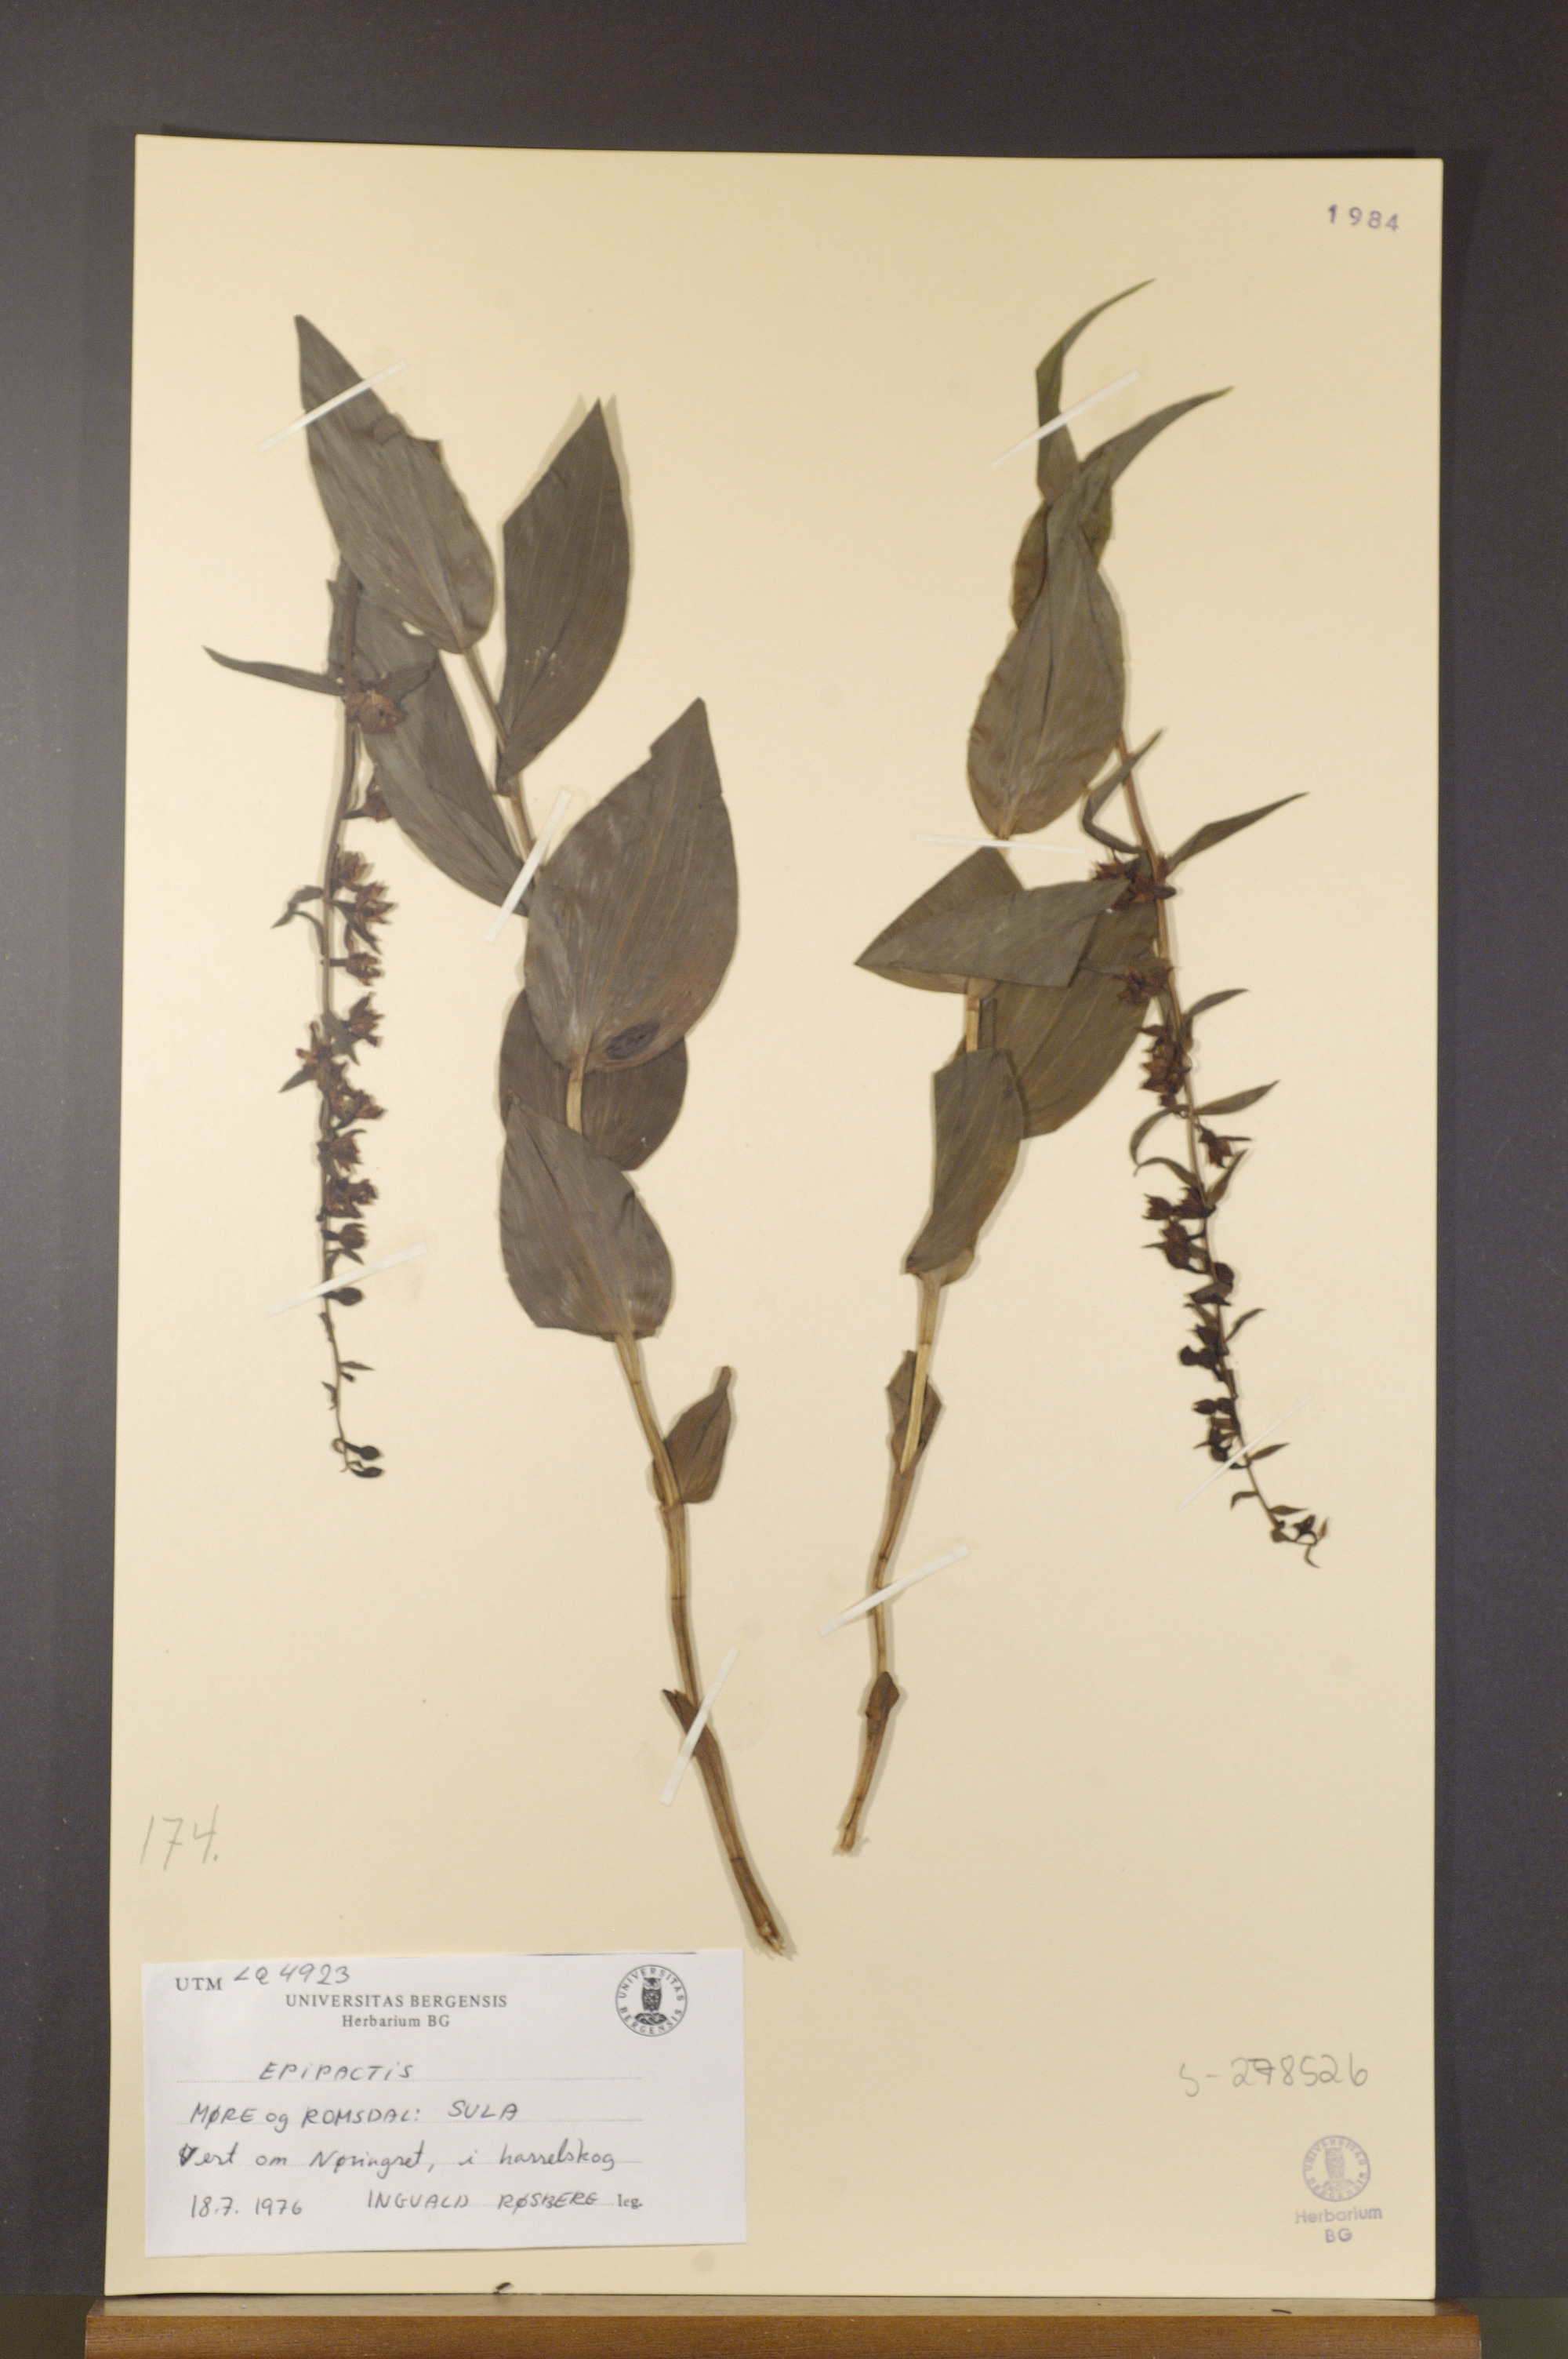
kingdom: Plantae
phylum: Tracheophyta
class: Liliopsida
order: Asparagales
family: Orchidaceae
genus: Epipactis
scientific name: Epipactis
